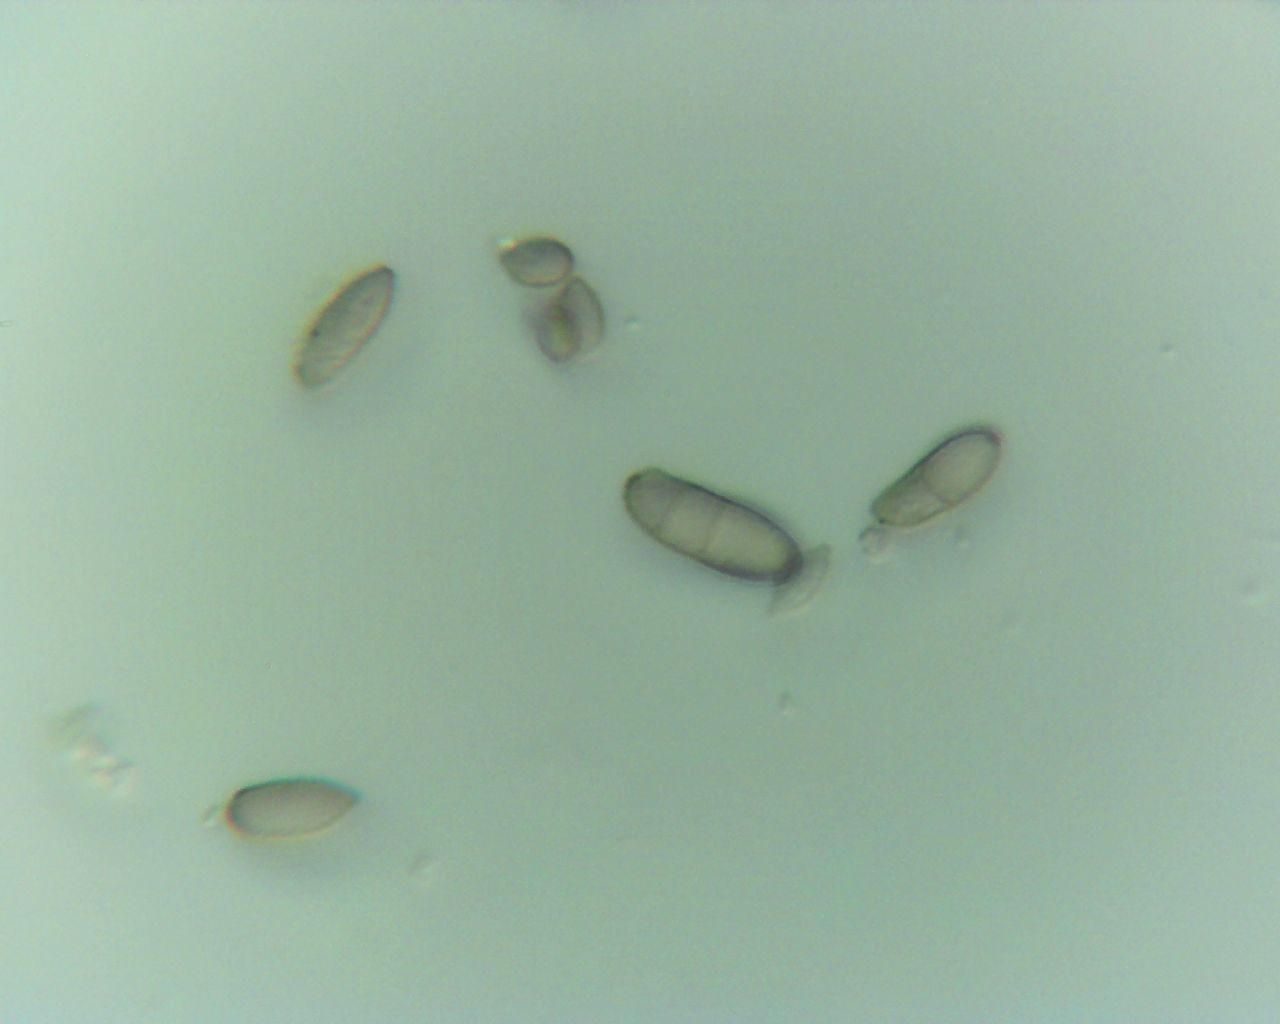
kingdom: Fungi
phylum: Ascomycota
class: Dothideomycetes
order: Capnodiales
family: Cladosporiaceae
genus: Cladosporium
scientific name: Cladosporium
